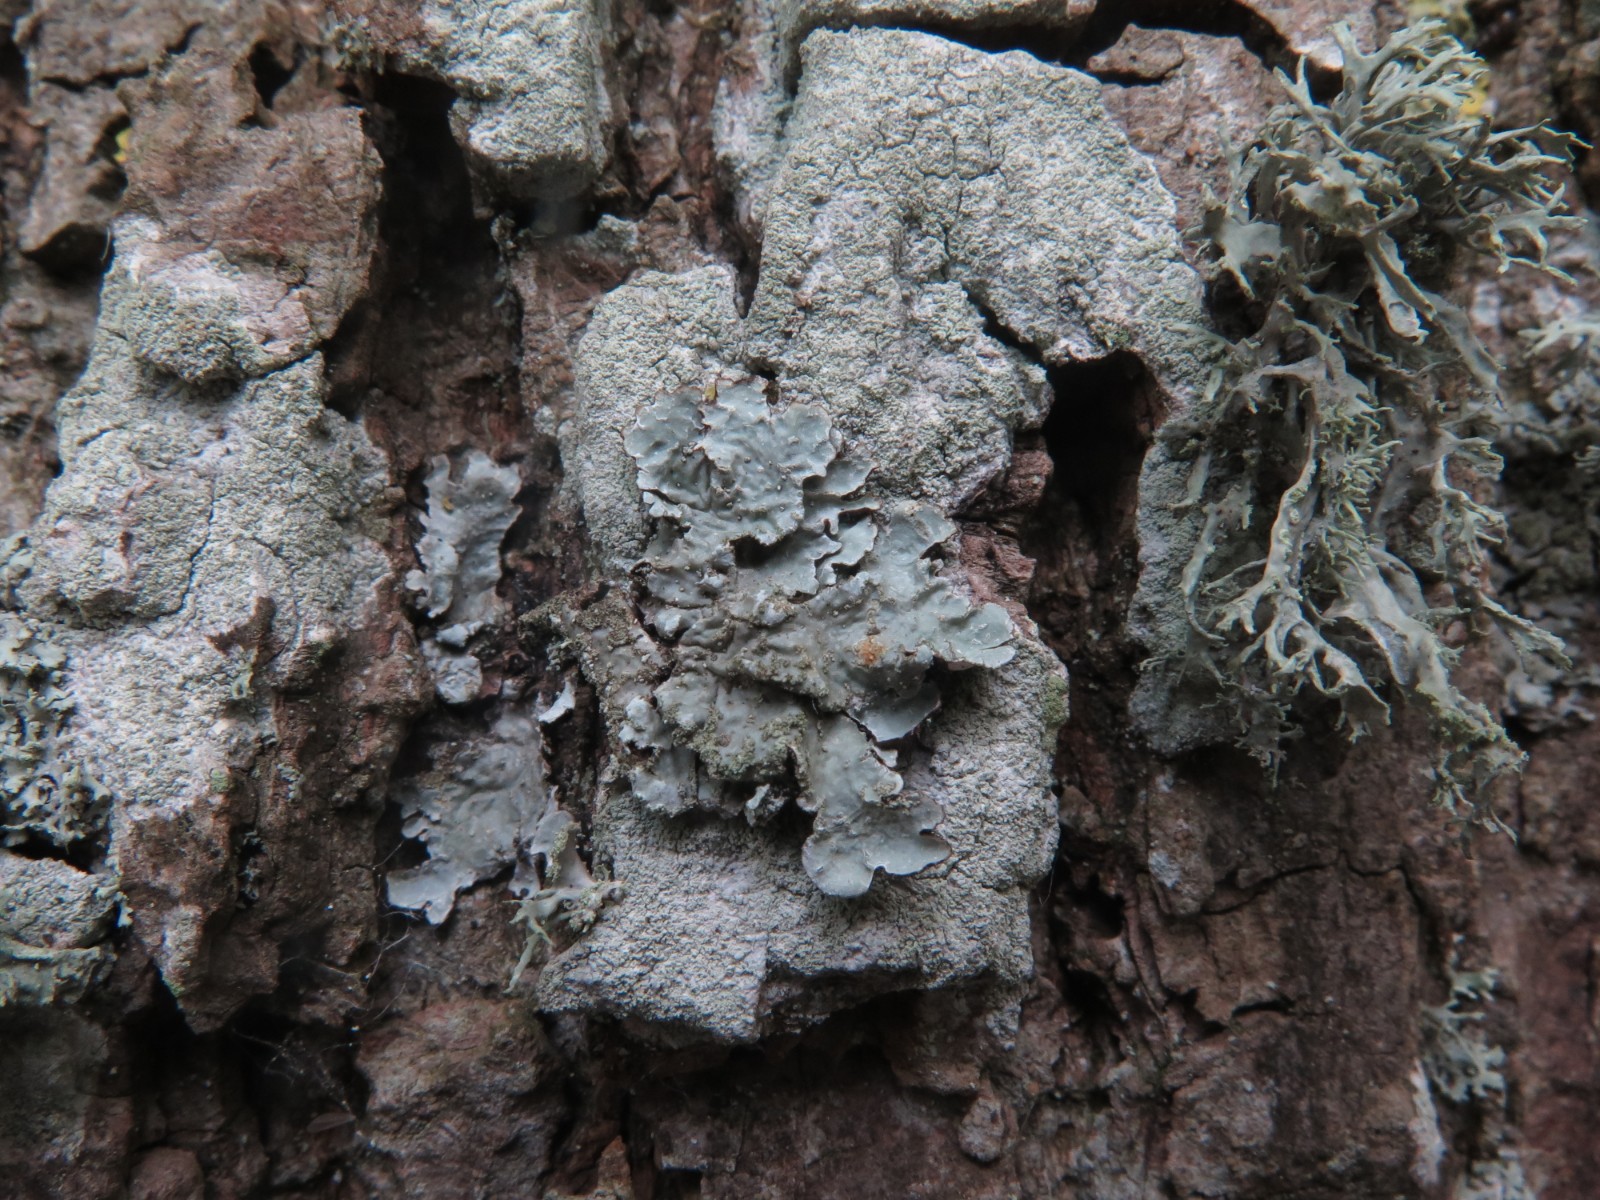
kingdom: Fungi
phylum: Ascomycota
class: Lecanoromycetes
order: Lecanorales
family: Parmeliaceae
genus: Parmelia
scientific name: Parmelia sulcata
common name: rynket skållav
